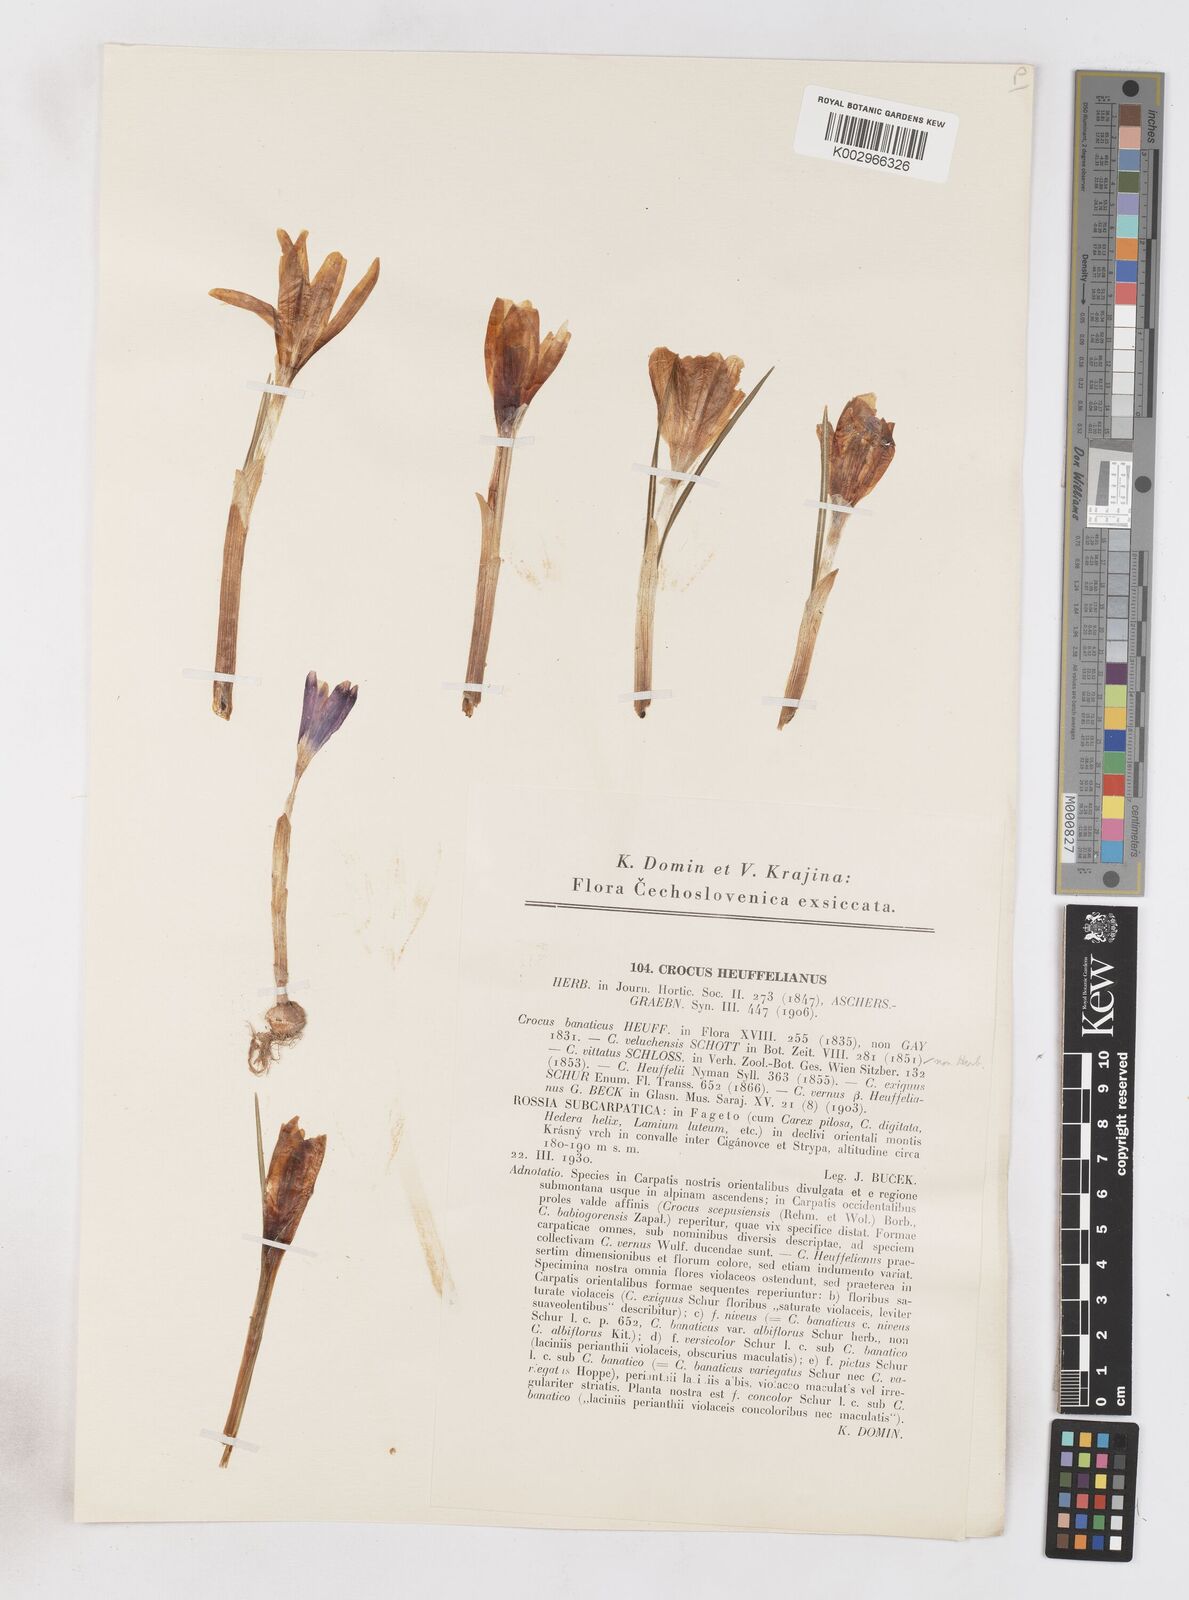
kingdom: Plantae
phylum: Tracheophyta
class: Liliopsida
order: Asparagales
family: Iridaceae
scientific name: Iridaceae
